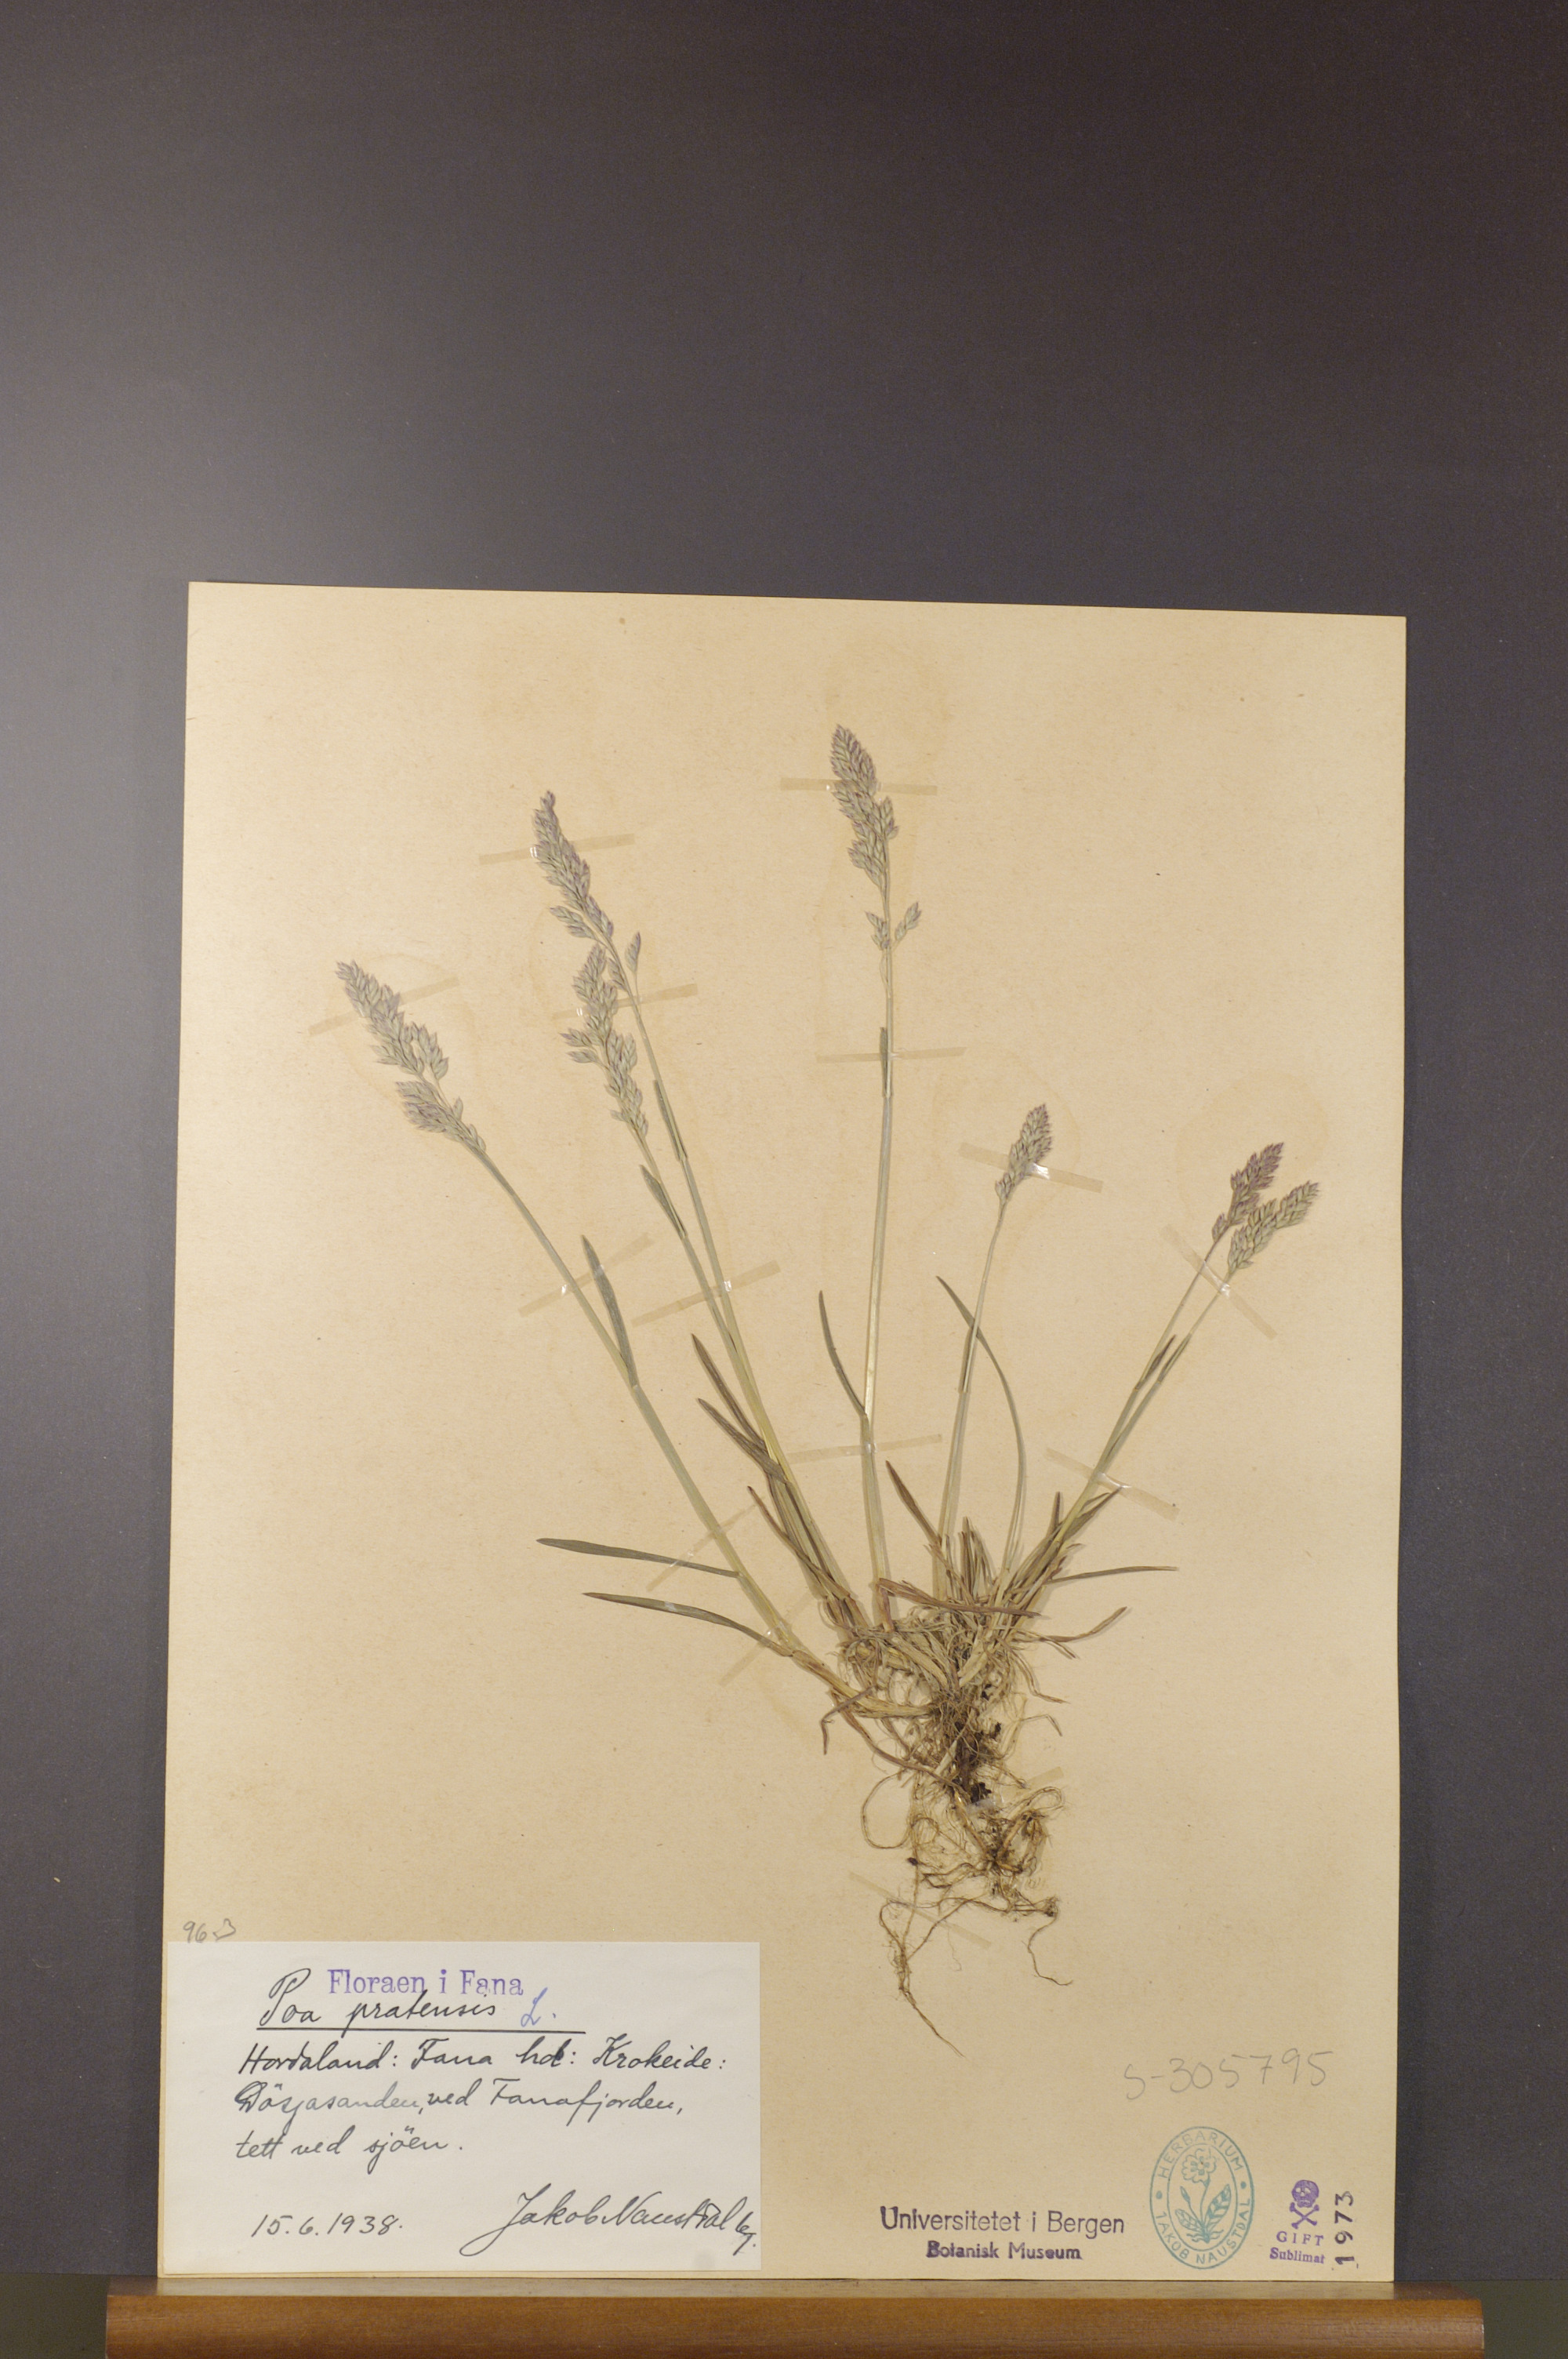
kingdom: Plantae
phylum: Tracheophyta
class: Liliopsida
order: Poales
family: Poaceae
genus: Poa
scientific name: Poa pratensis
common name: Kentucky bluegrass
